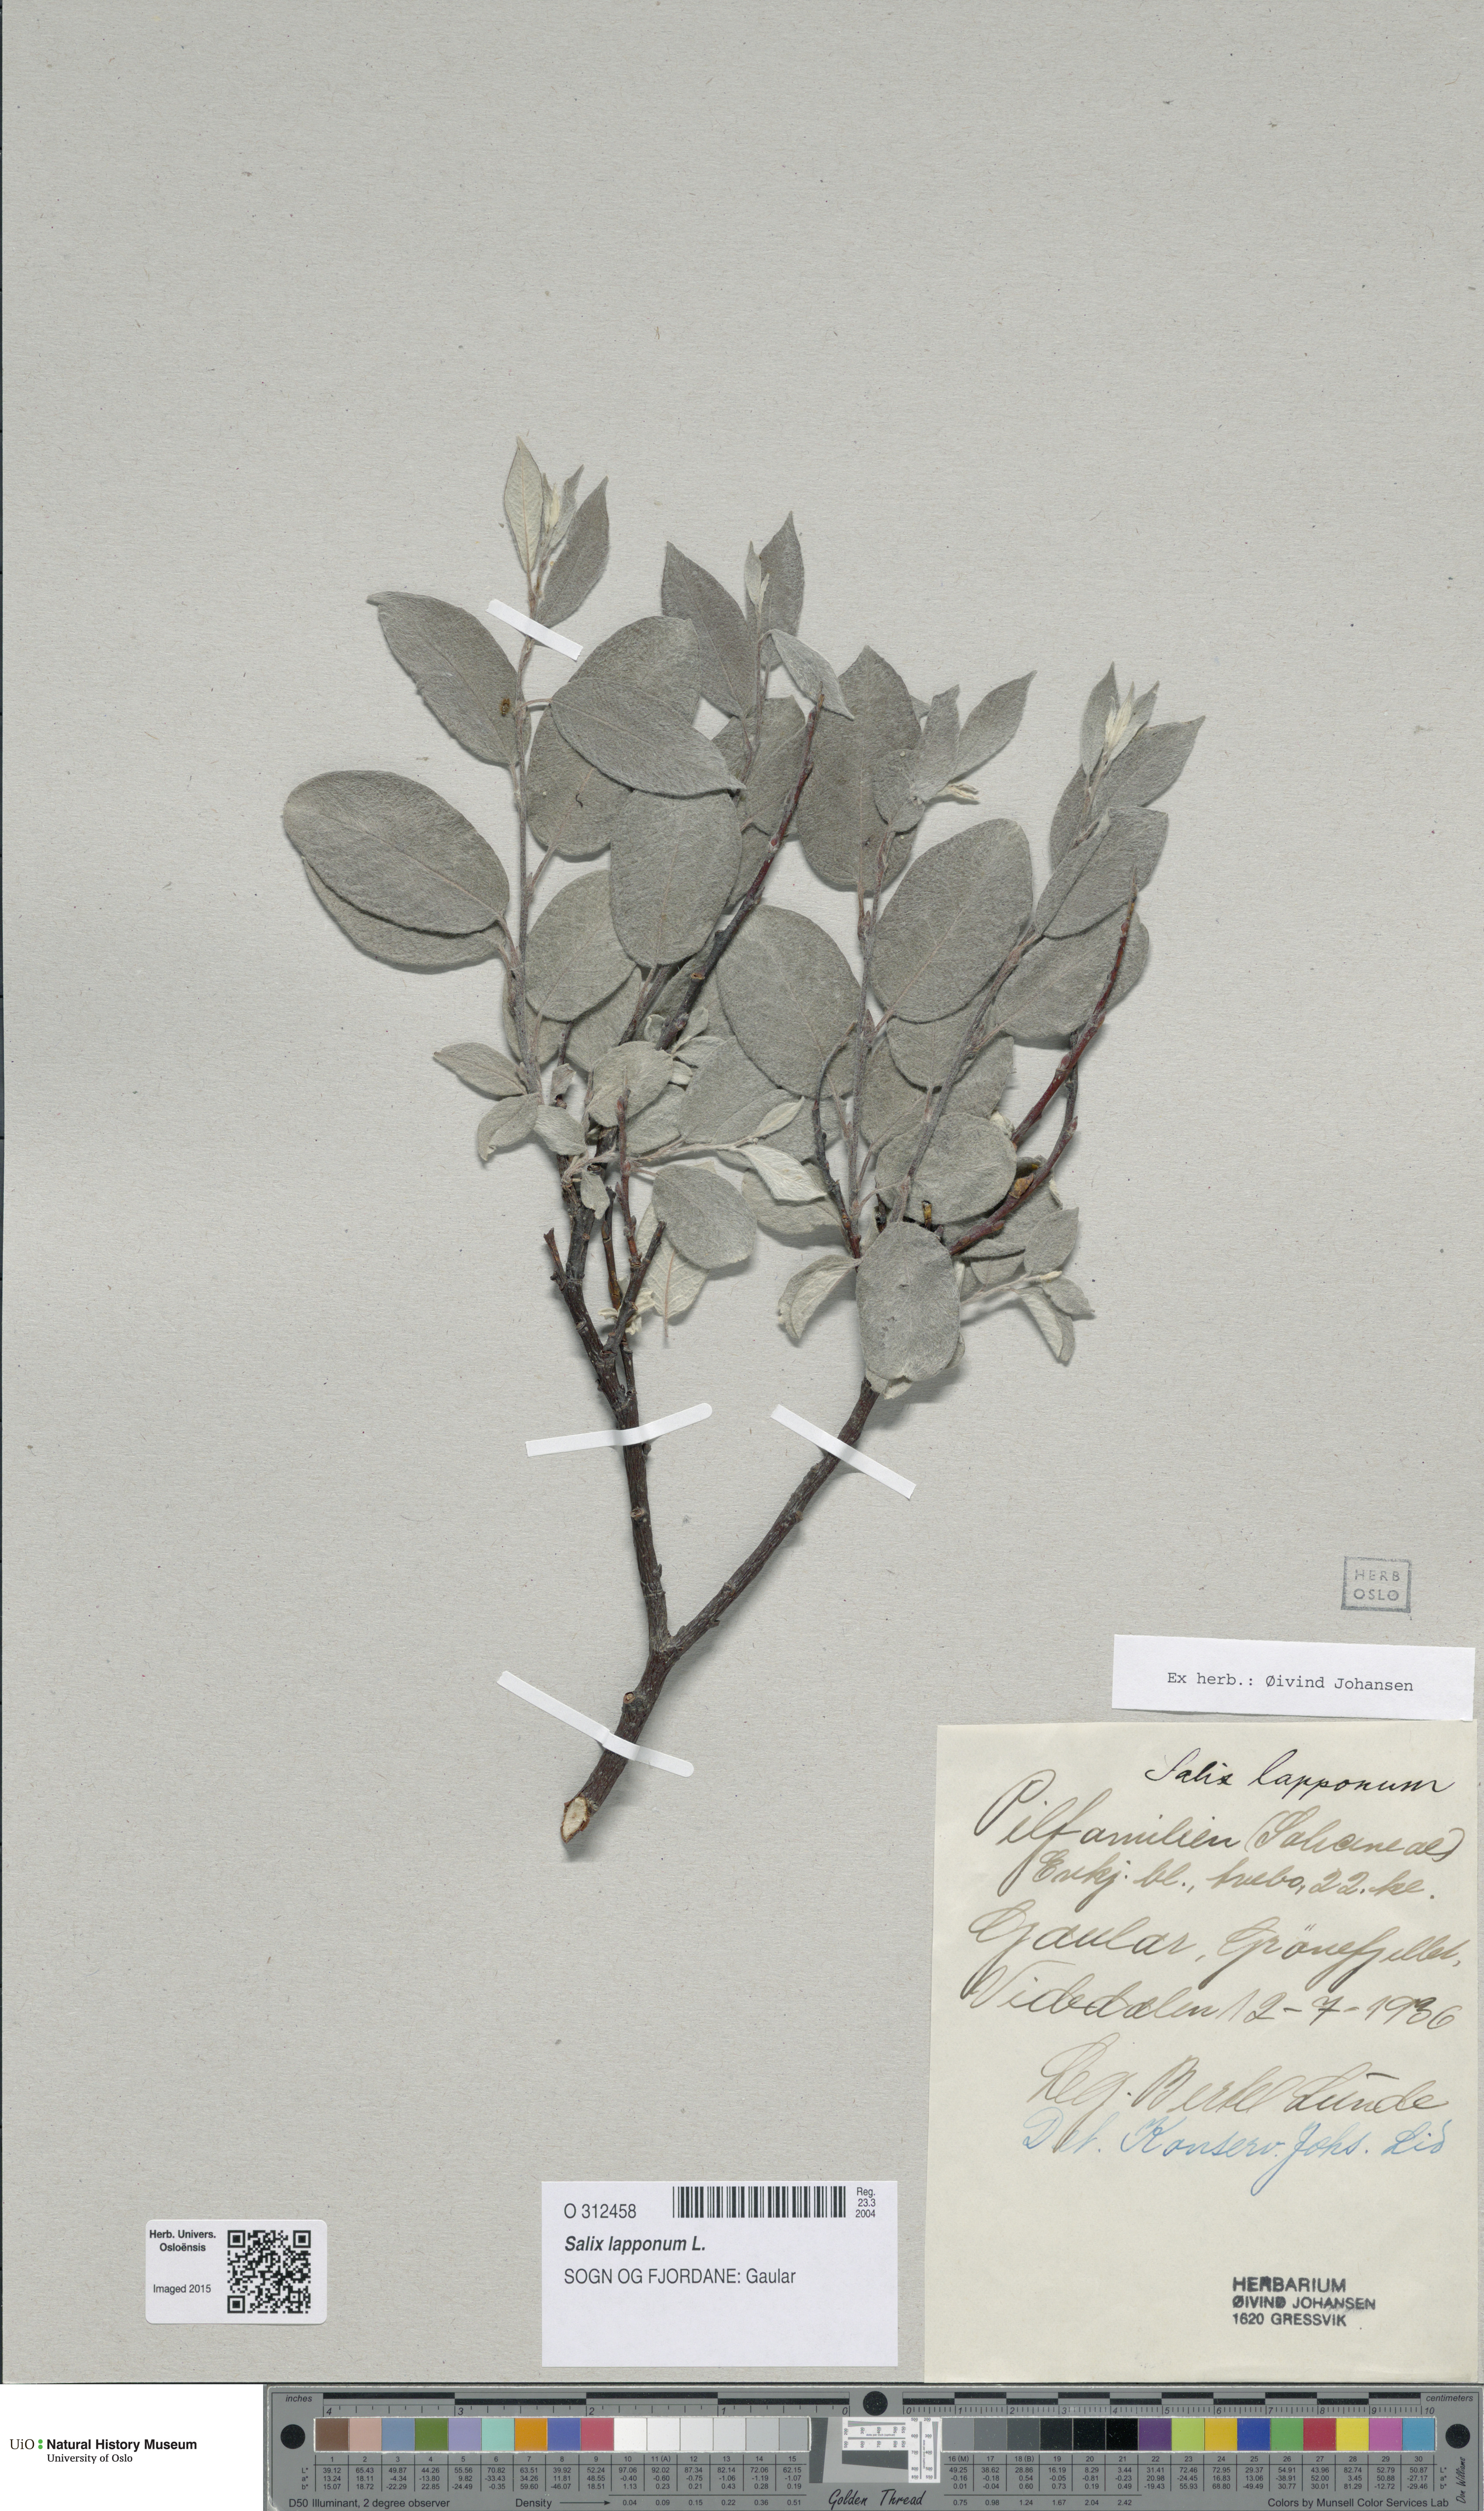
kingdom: Plantae
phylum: Tracheophyta
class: Magnoliopsida
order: Malpighiales
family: Salicaceae
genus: Salix
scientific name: Salix lapponum
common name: Downy willow
